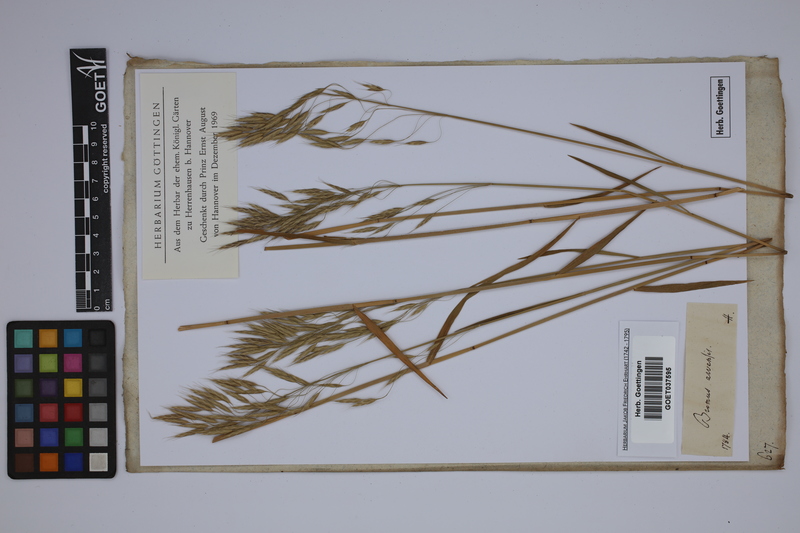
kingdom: Plantae
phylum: Tracheophyta
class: Liliopsida
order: Poales
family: Poaceae
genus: Bromus
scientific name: Bromus arvensis
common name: Field brome
